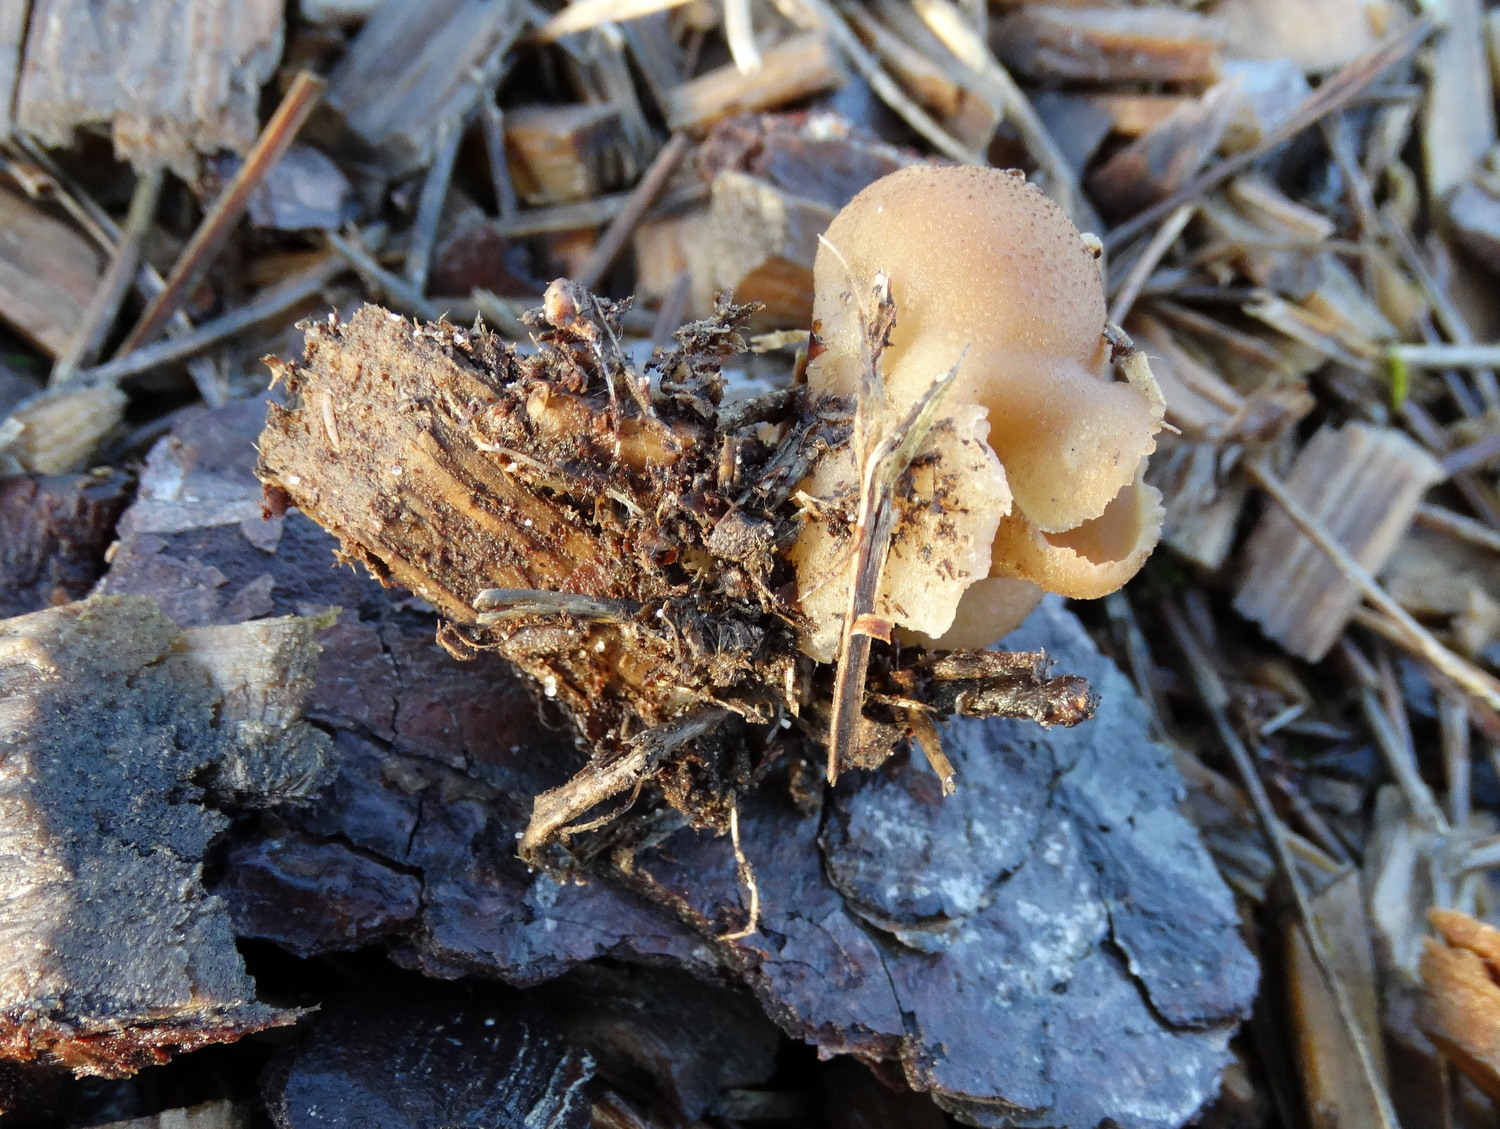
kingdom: Fungi
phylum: Ascomycota
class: Pezizomycetes
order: Pezizales
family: Pezizaceae
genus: Peziza
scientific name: Peziza vesiculosa
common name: blære-bægersvamp
